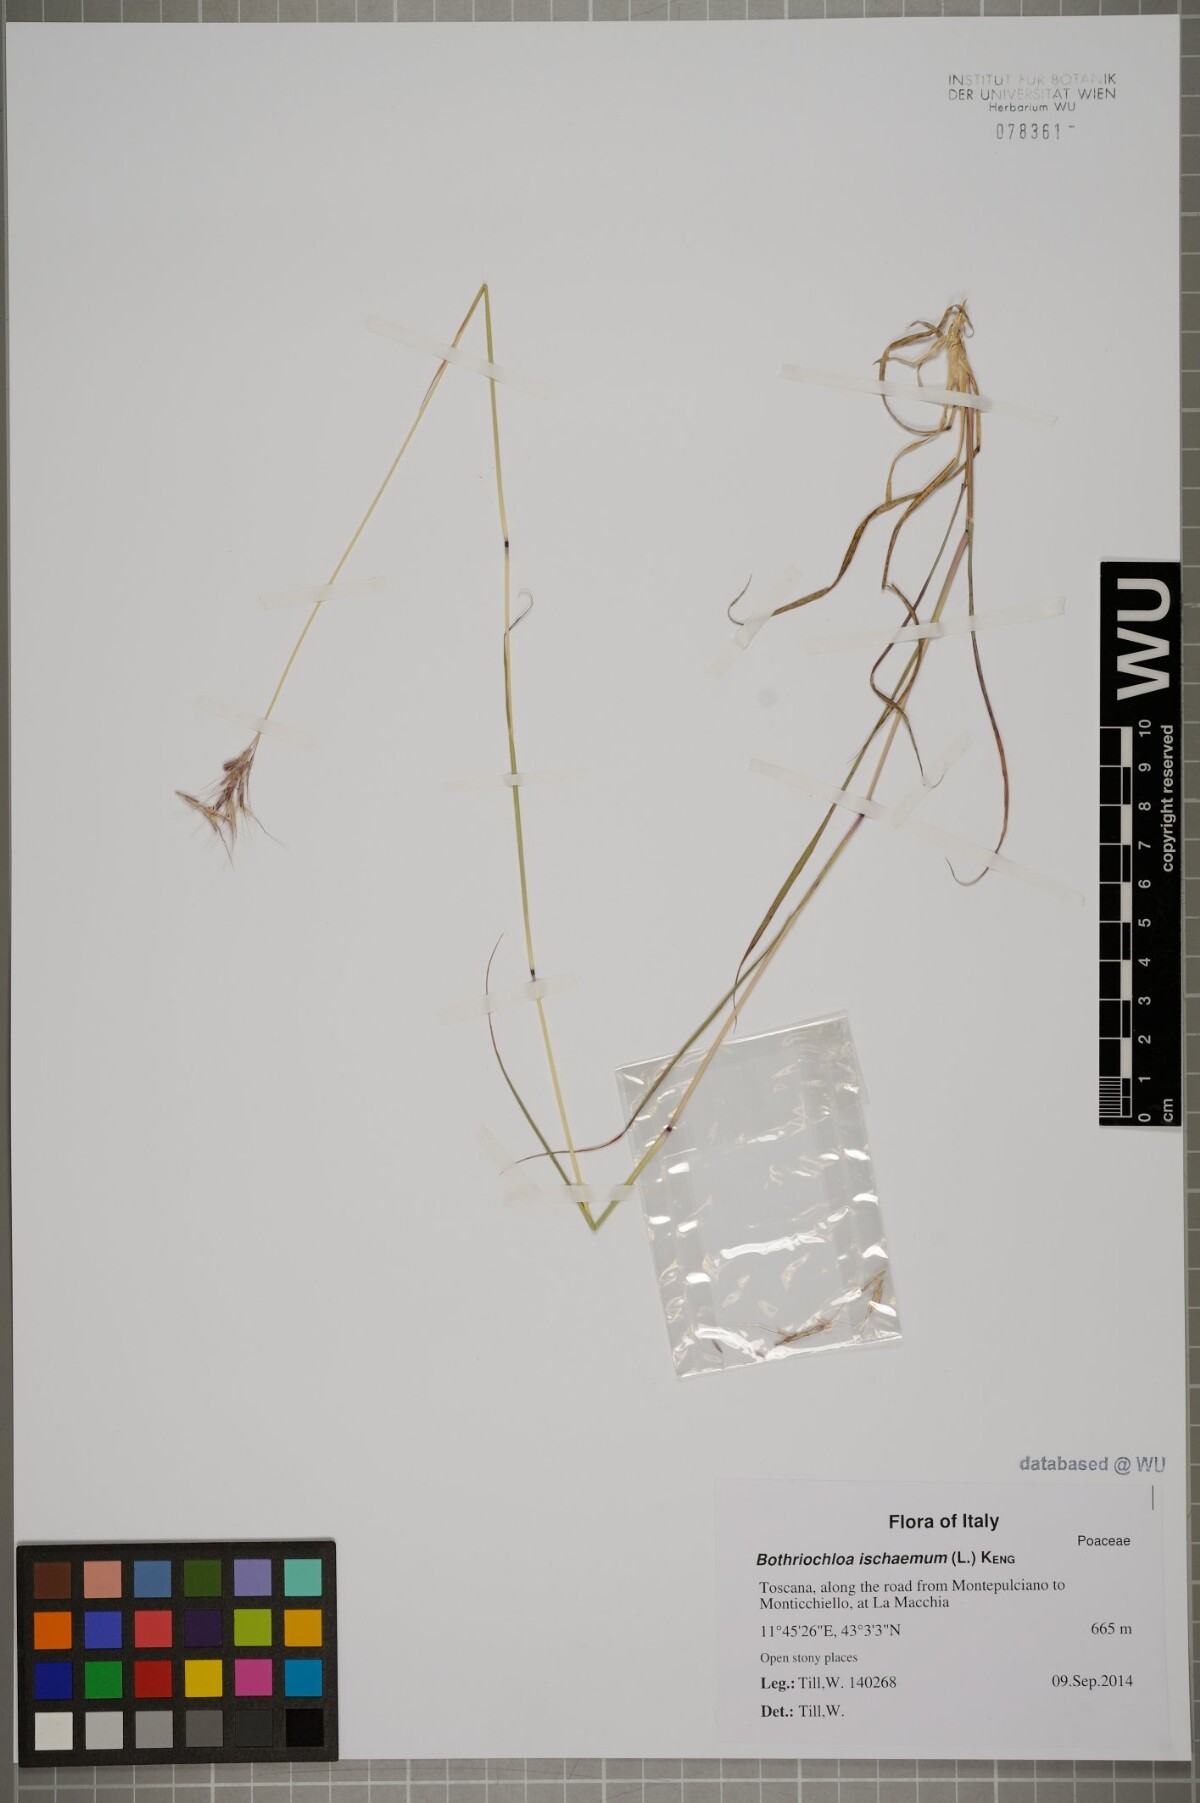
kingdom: Plantae
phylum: Tracheophyta
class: Liliopsida
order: Poales
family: Poaceae
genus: Bothriochloa
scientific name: Bothriochloa ischaemum
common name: Yellow bluestem
